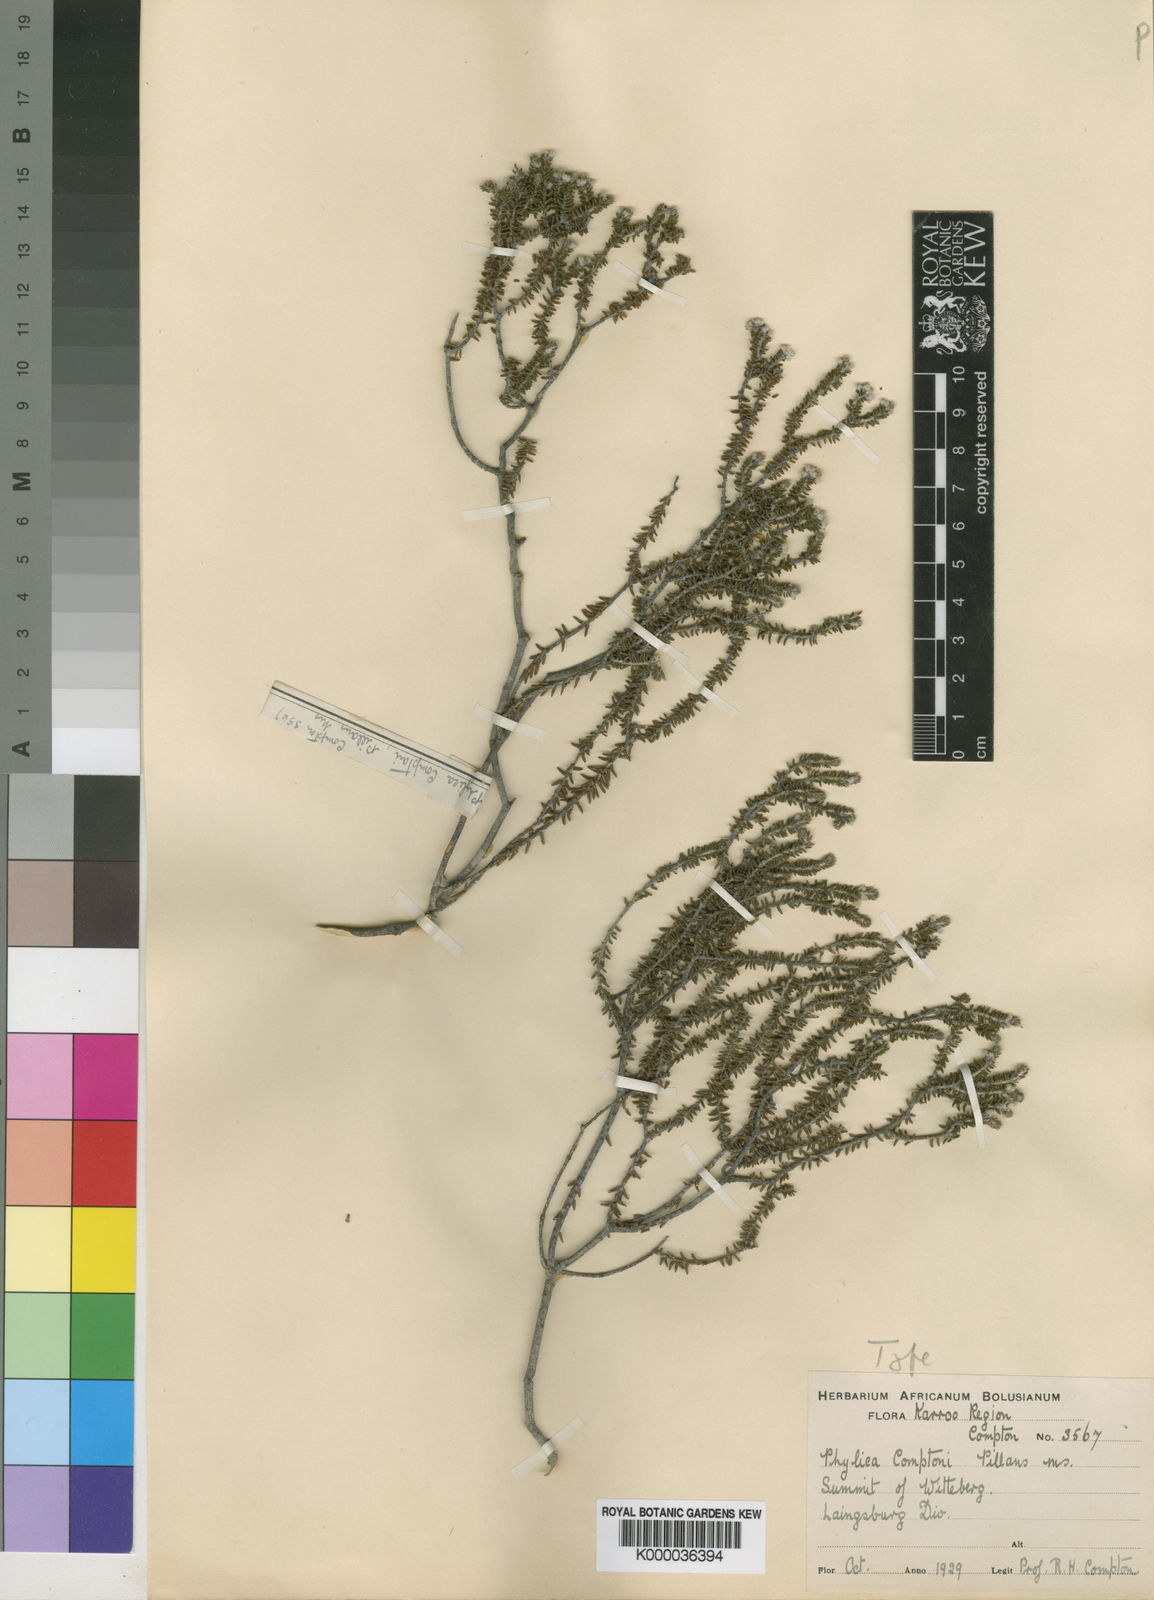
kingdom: Plantae
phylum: Tracheophyta
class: Magnoliopsida
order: Rosales
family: Rhamnaceae
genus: Phylica
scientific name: Phylica comptonii
